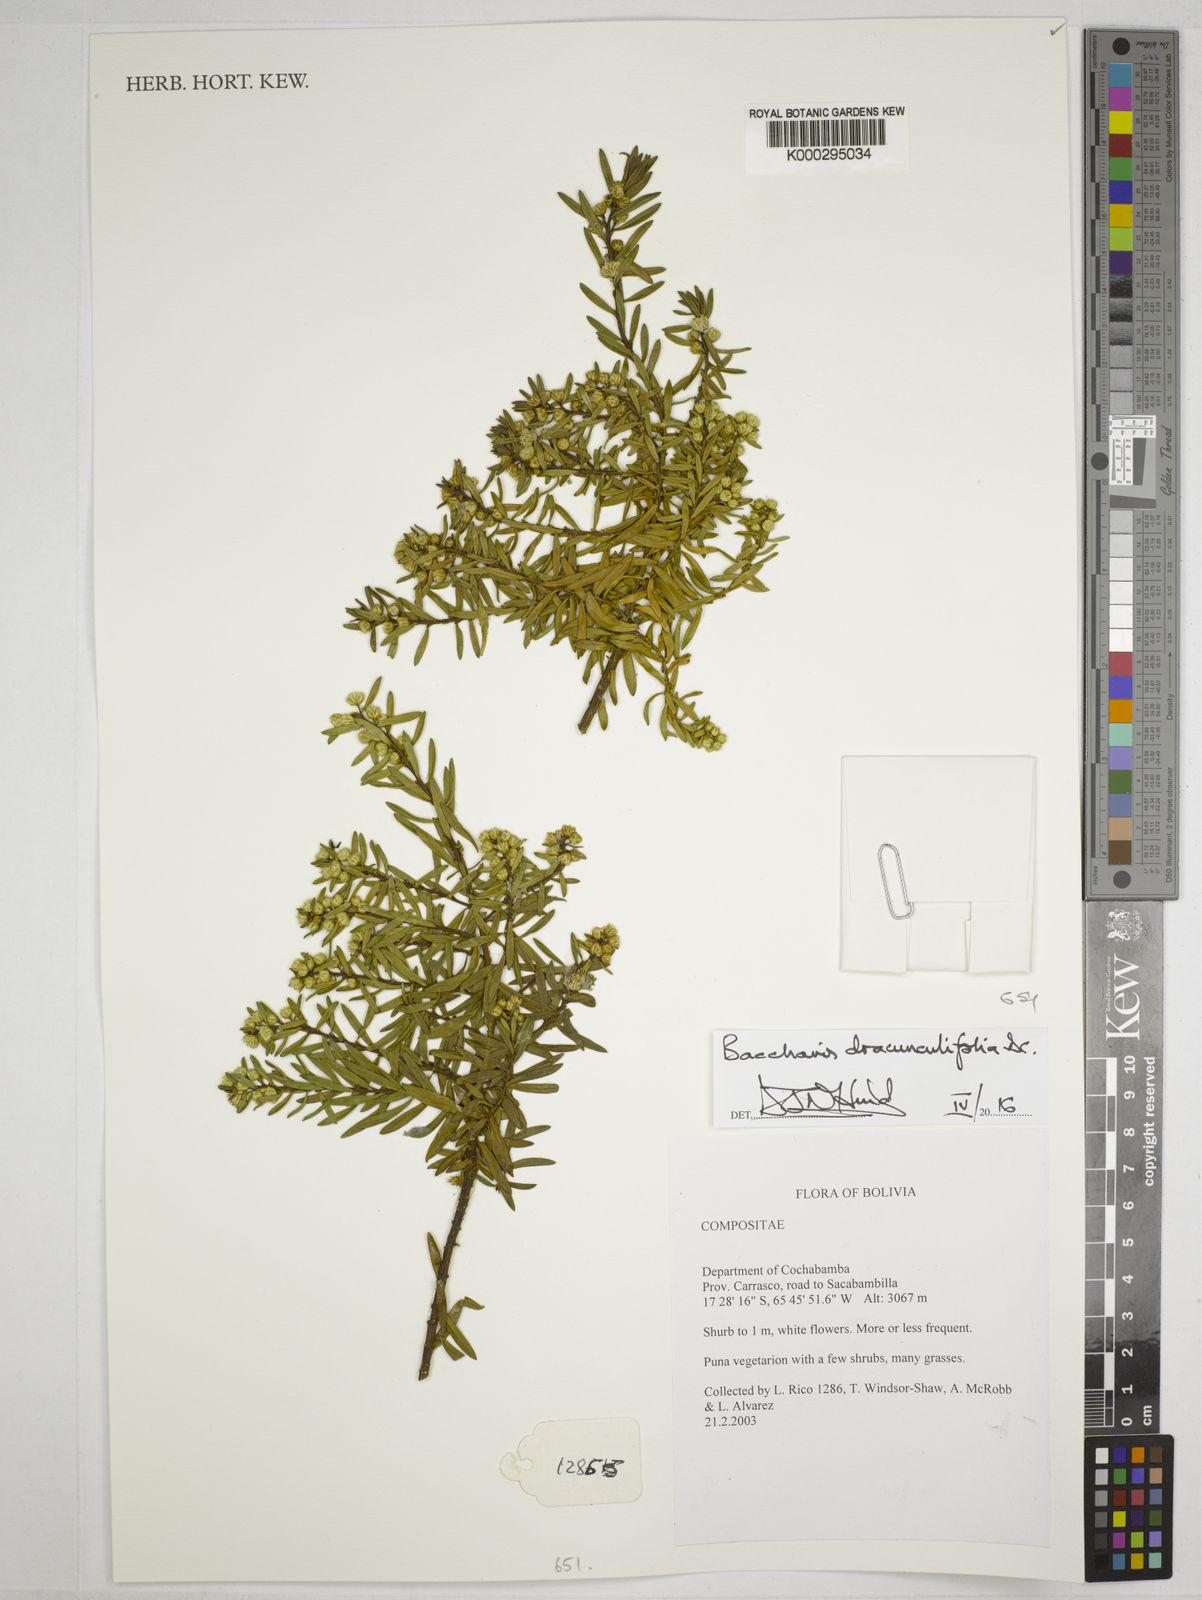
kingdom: Plantae
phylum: Tracheophyta
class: Magnoliopsida
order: Asterales
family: Asteraceae
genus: Baccharis
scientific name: Baccharis dracunculifolia
